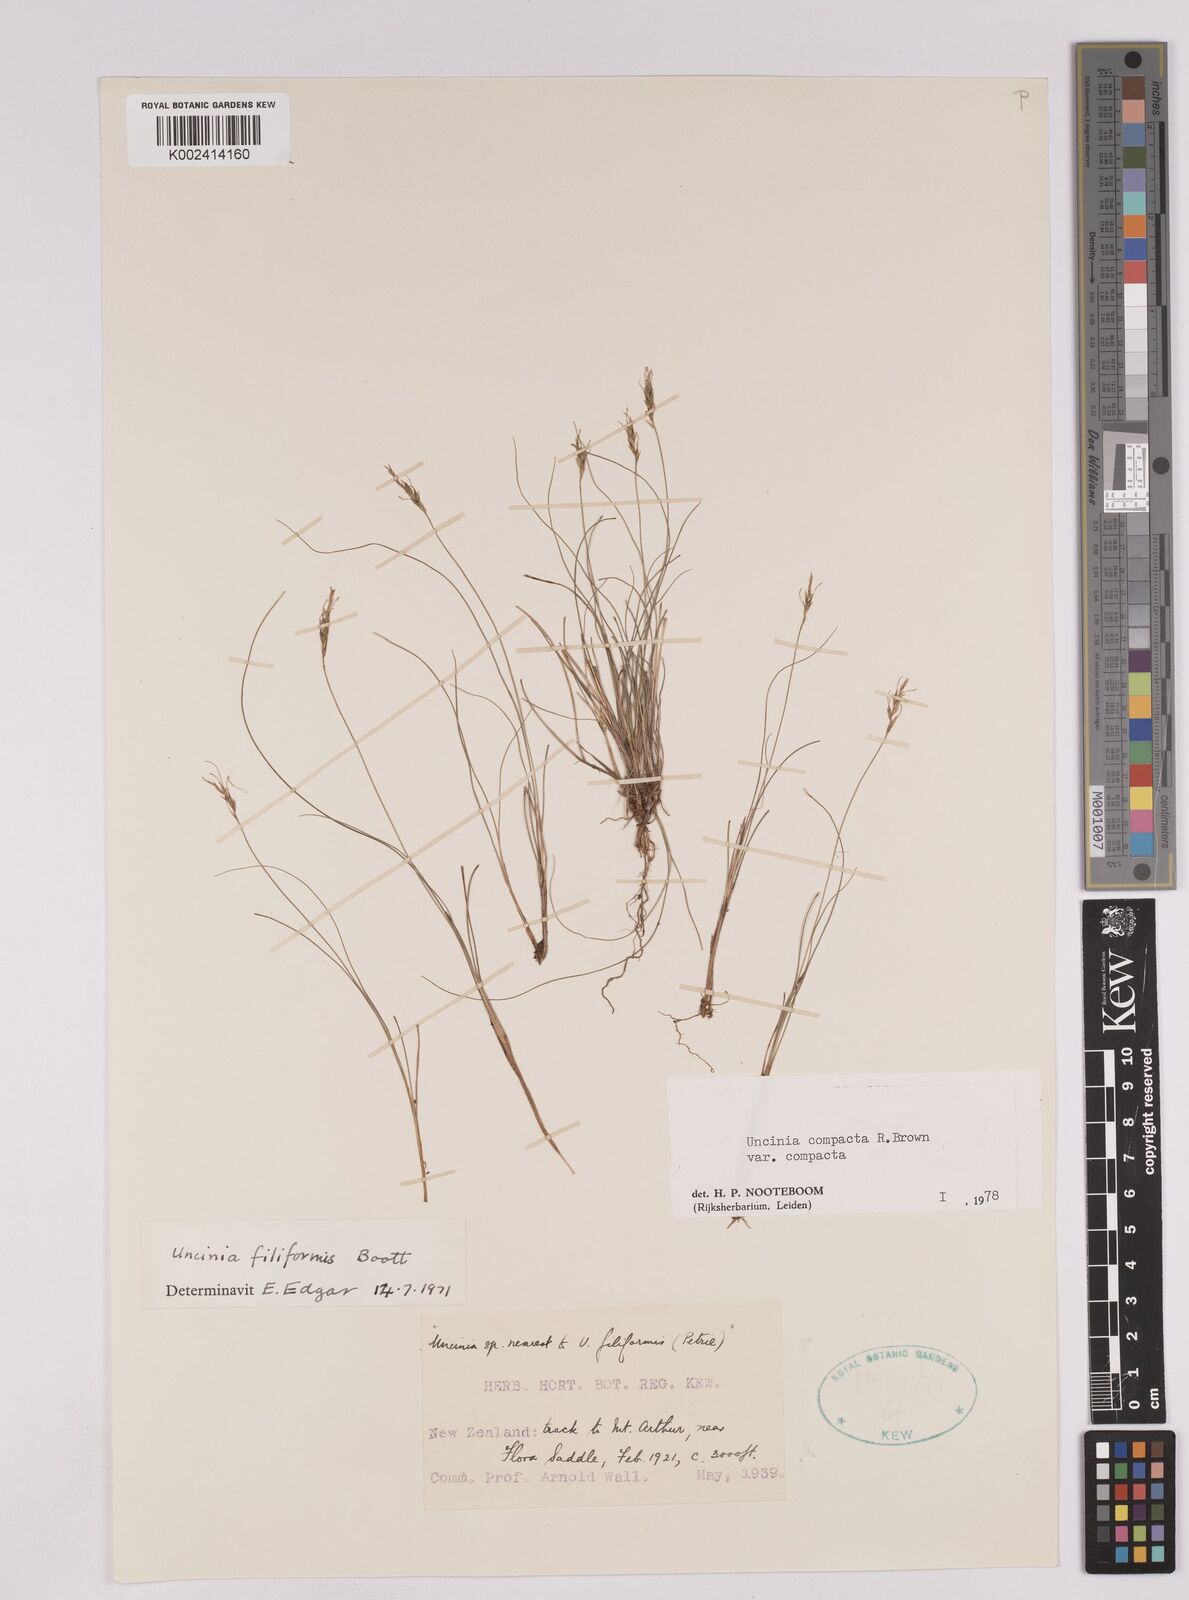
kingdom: Plantae
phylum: Tracheophyta
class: Liliopsida
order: Poales
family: Cyperaceae
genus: Carex
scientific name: Carex austrocompacta
